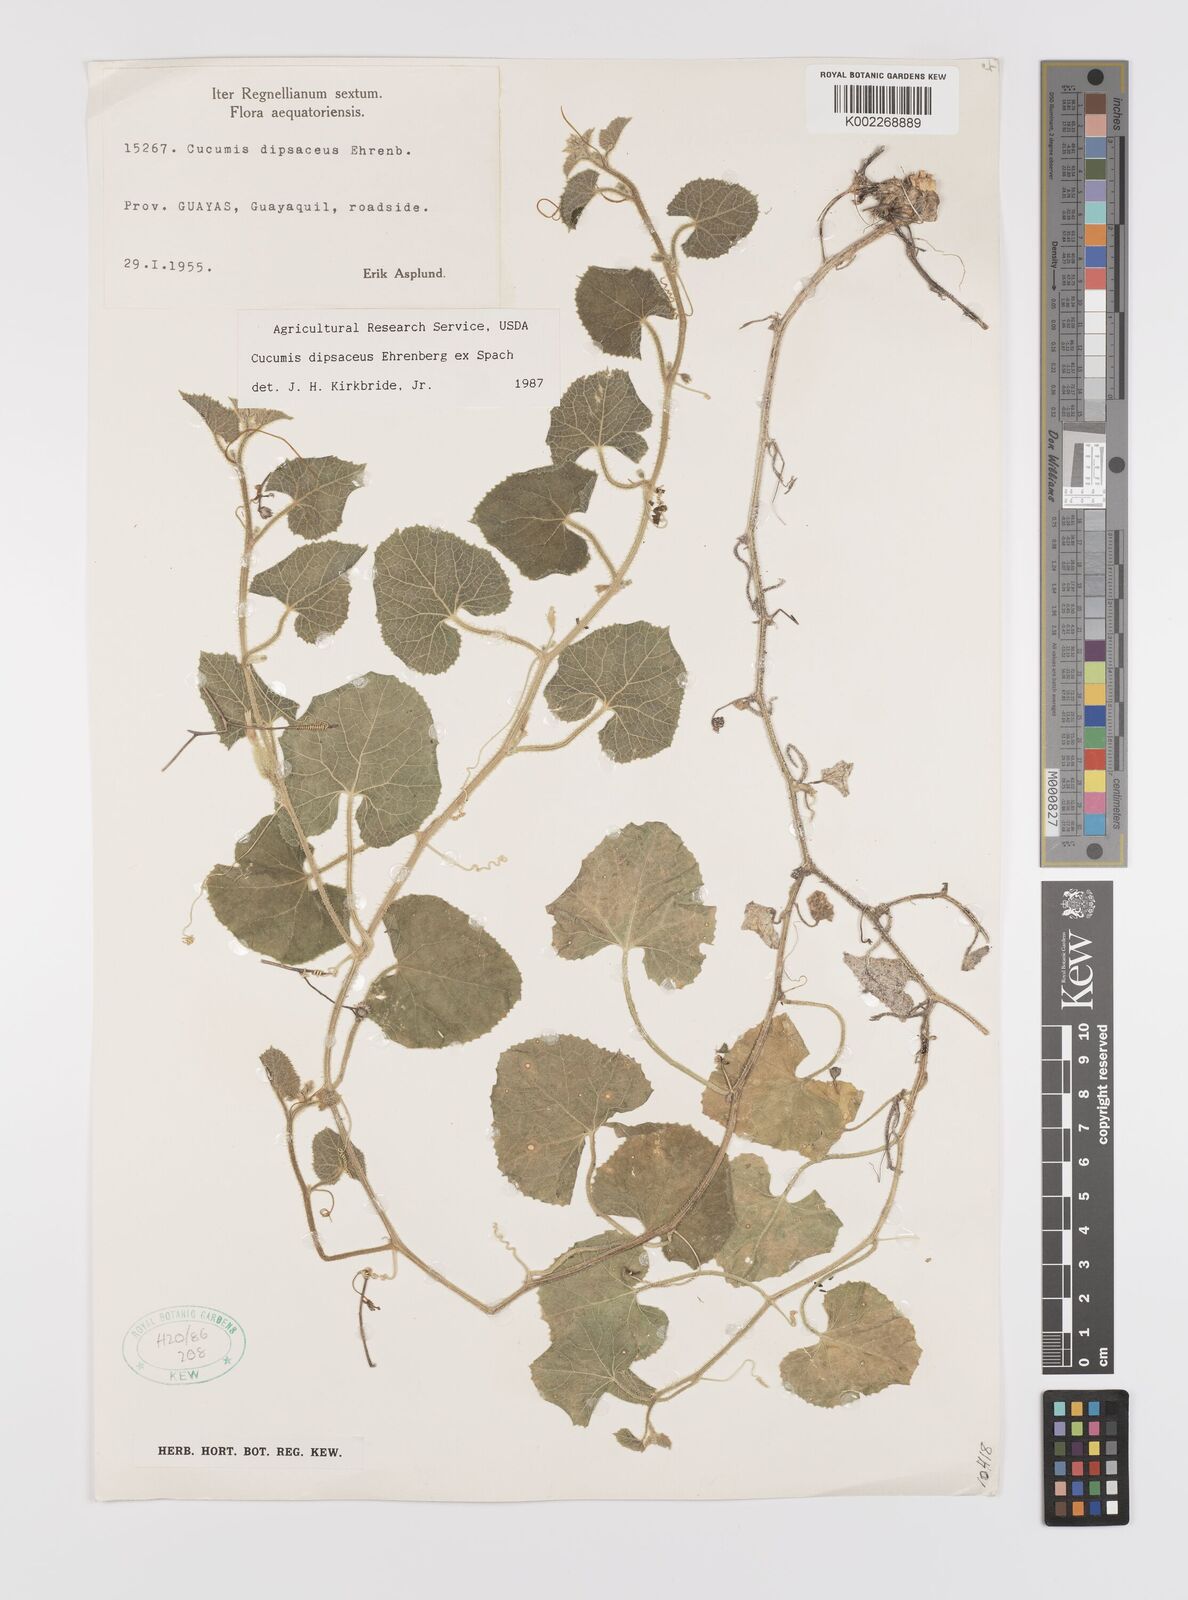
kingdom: Plantae
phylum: Tracheophyta
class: Magnoliopsida
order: Cucurbitales
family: Cucurbitaceae
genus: Cucumis
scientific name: Cucumis
